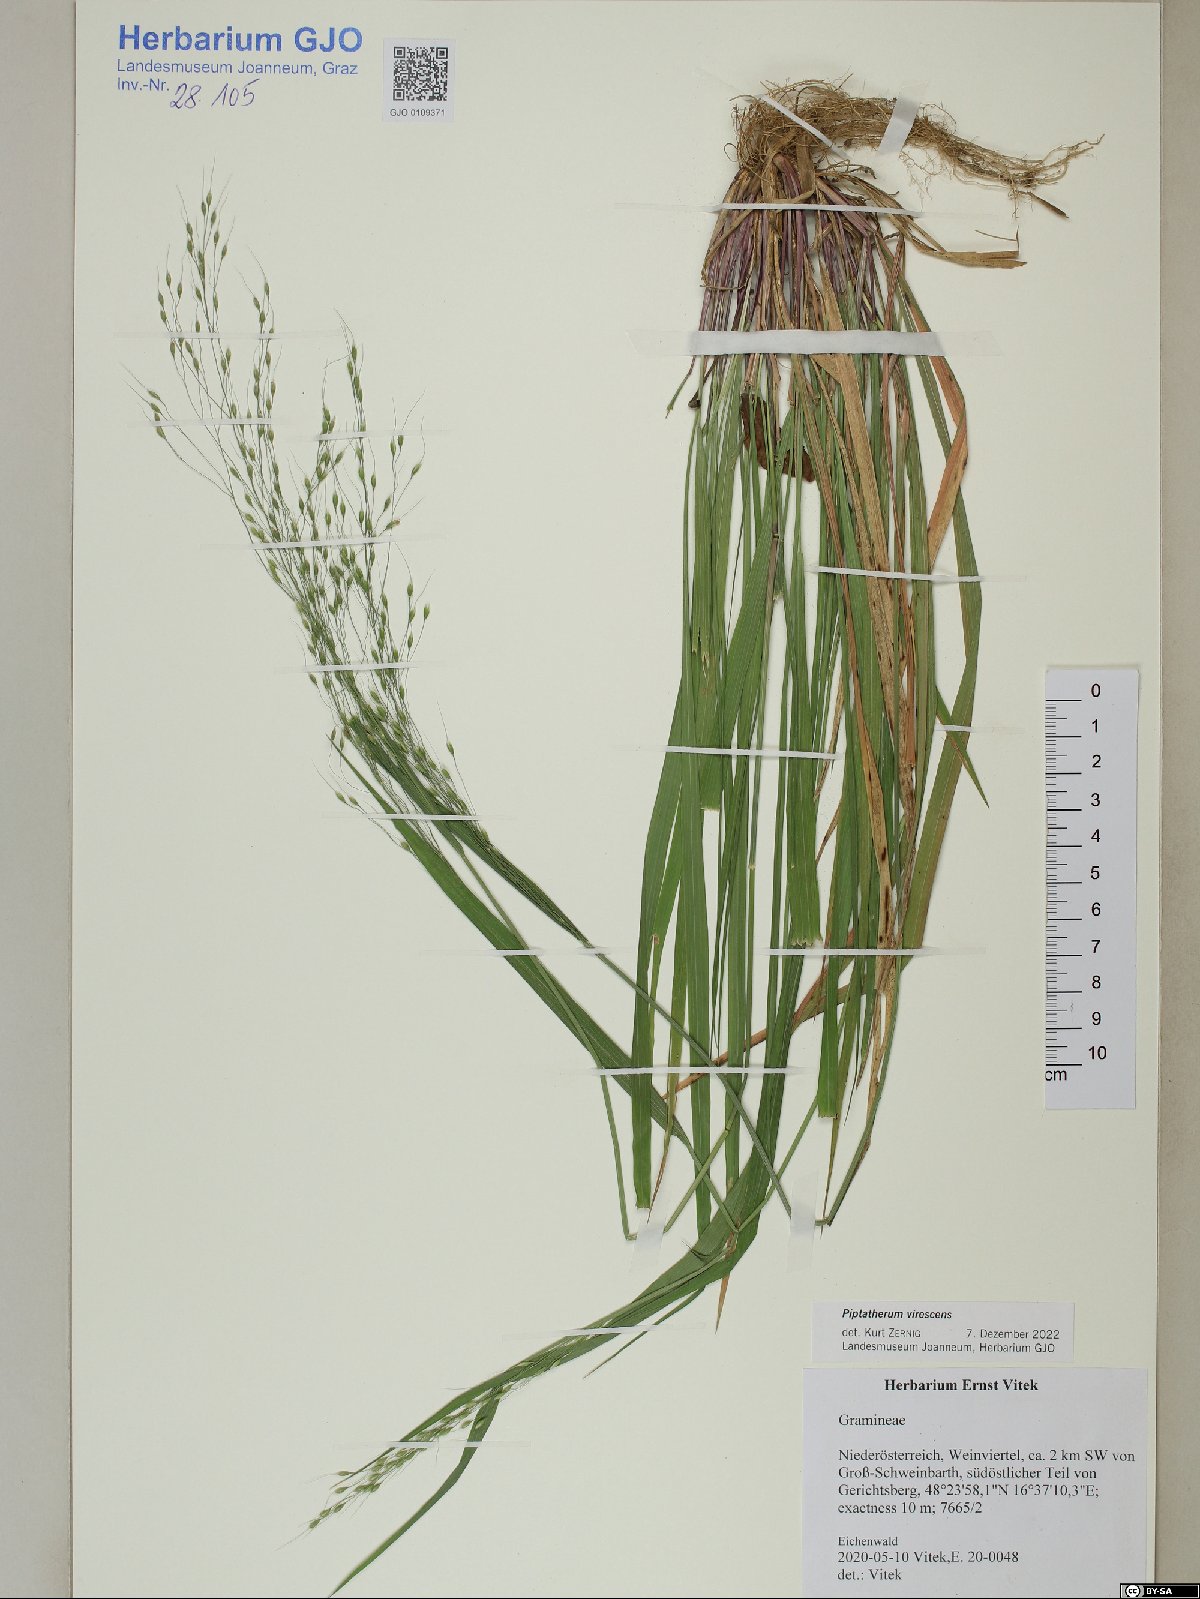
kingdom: Plantae
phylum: Tracheophyta
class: Liliopsida
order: Poales
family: Poaceae
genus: Achnatherum
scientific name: Achnatherum virescens
